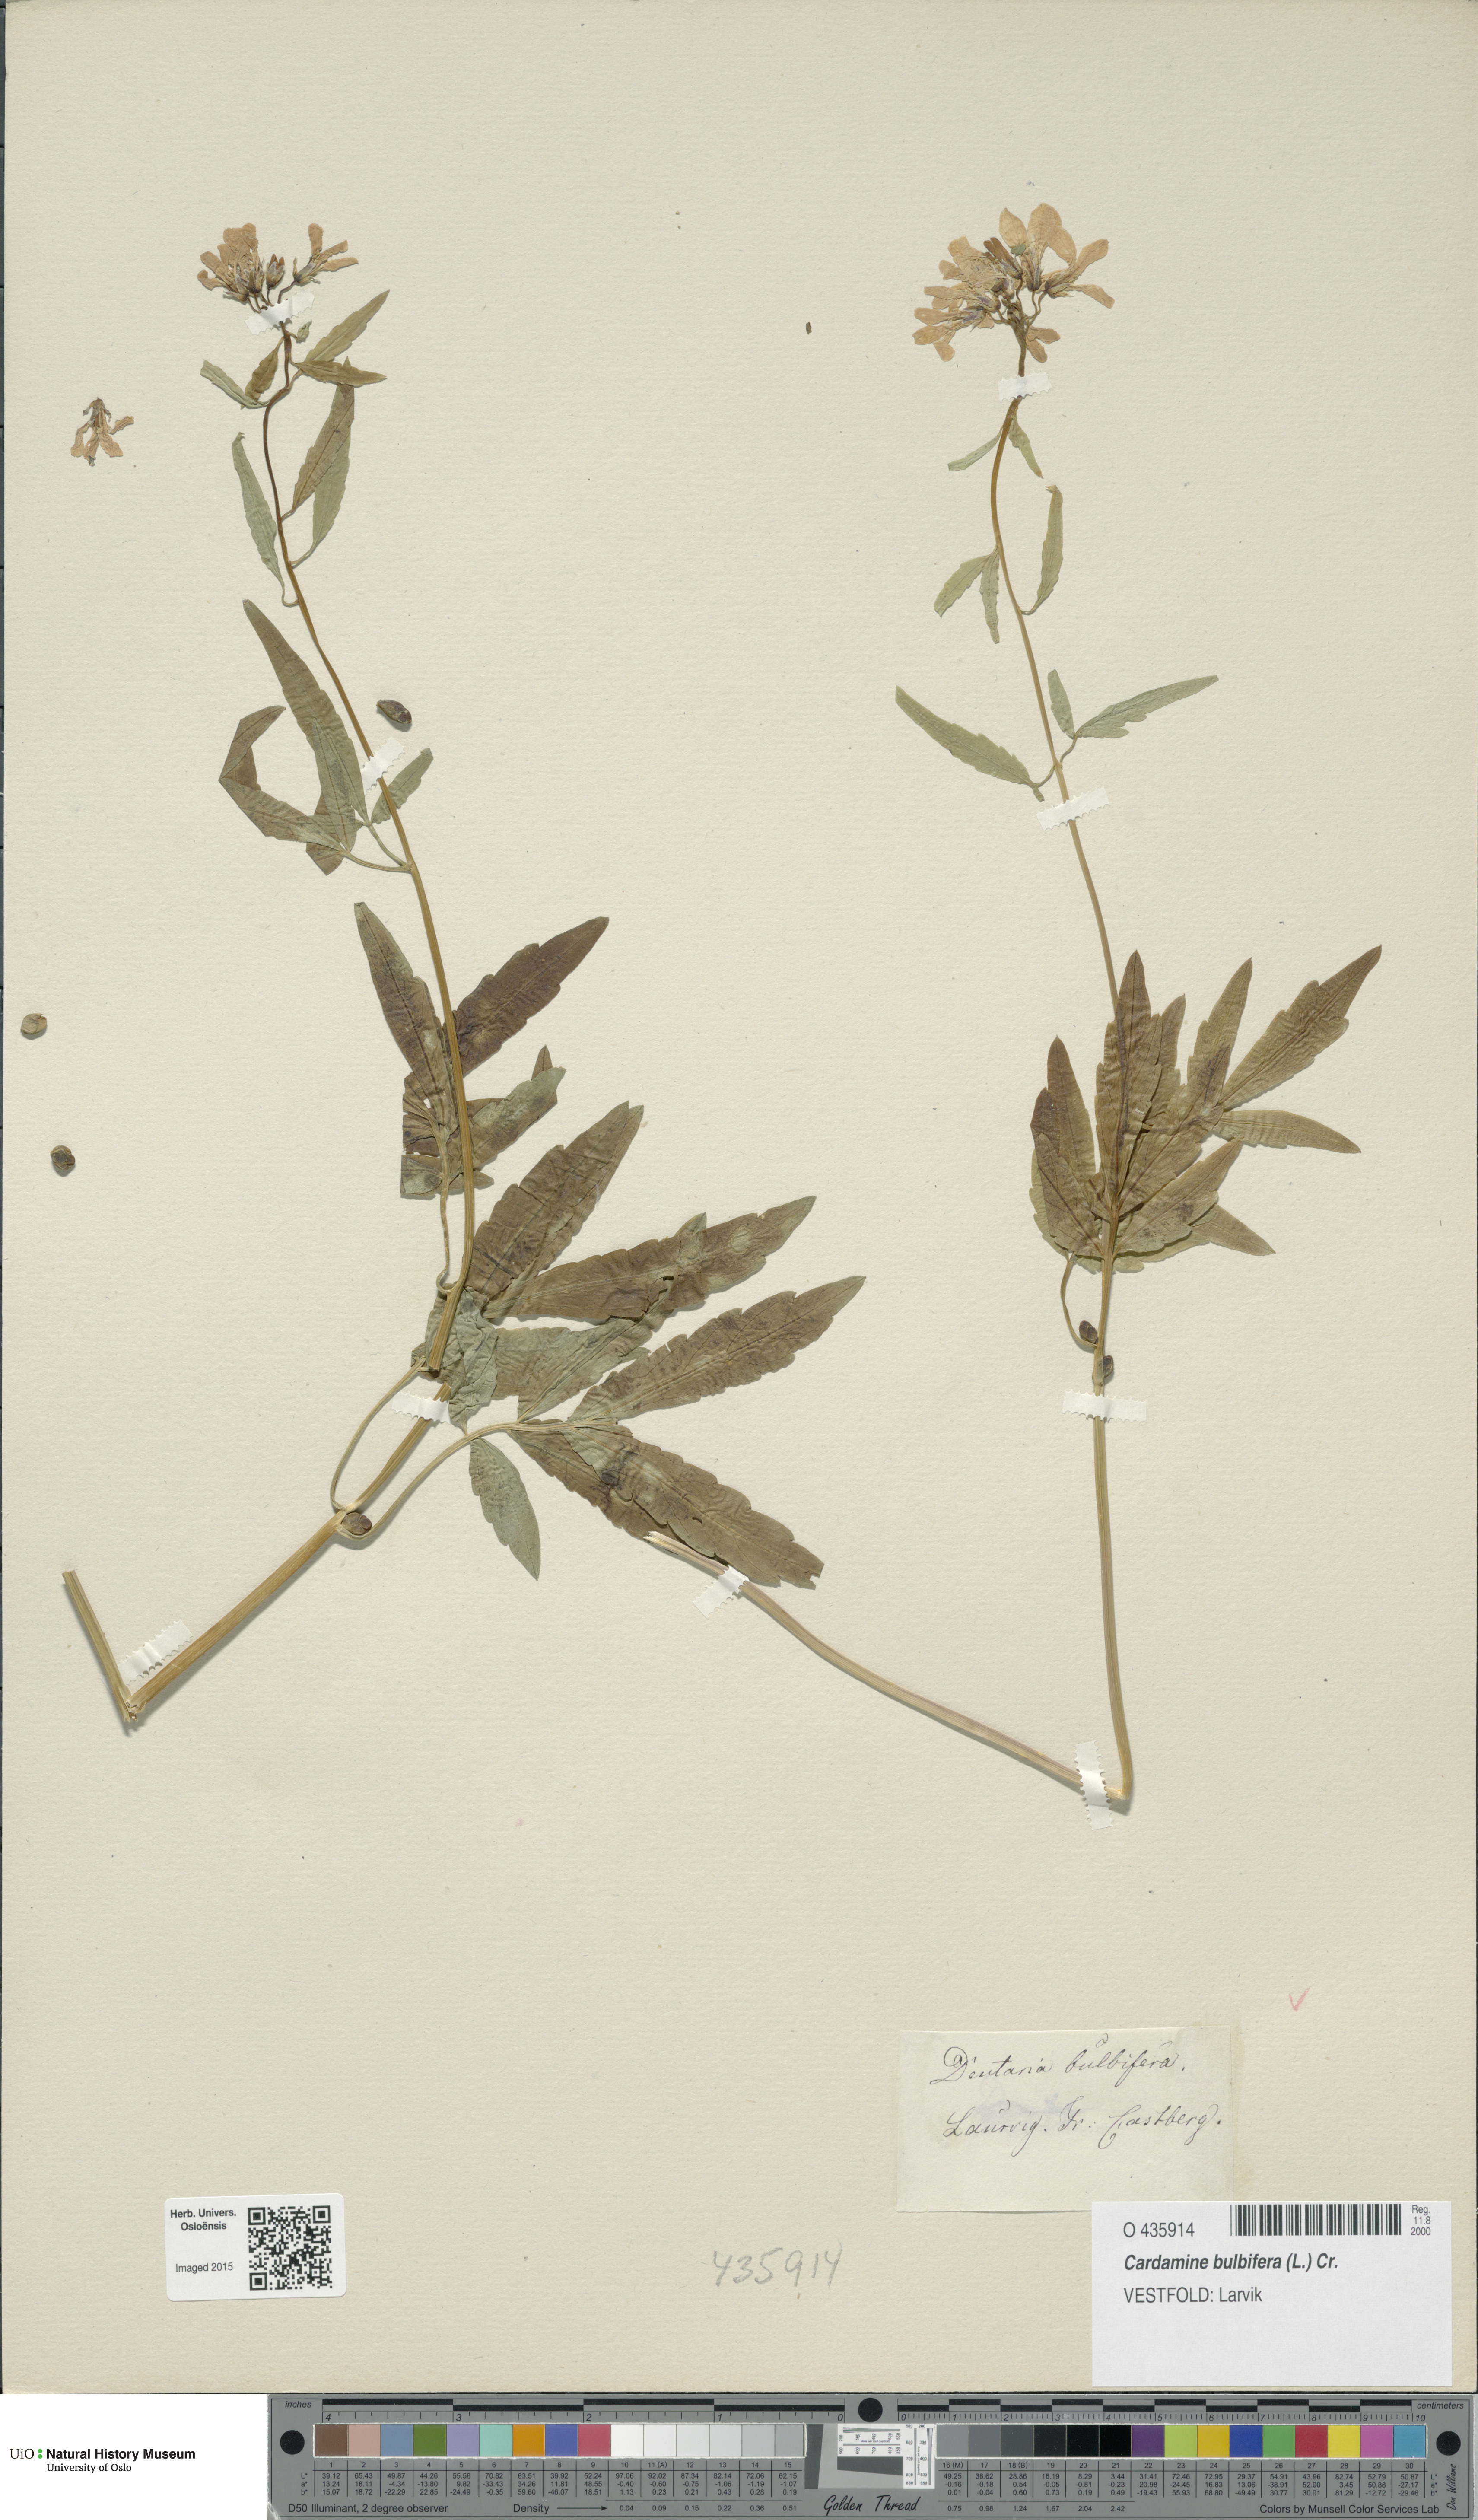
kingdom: Plantae
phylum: Tracheophyta
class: Magnoliopsida
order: Brassicales
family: Brassicaceae
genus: Cardamine
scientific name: Cardamine bulbifera
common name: Coralroot bittercress
